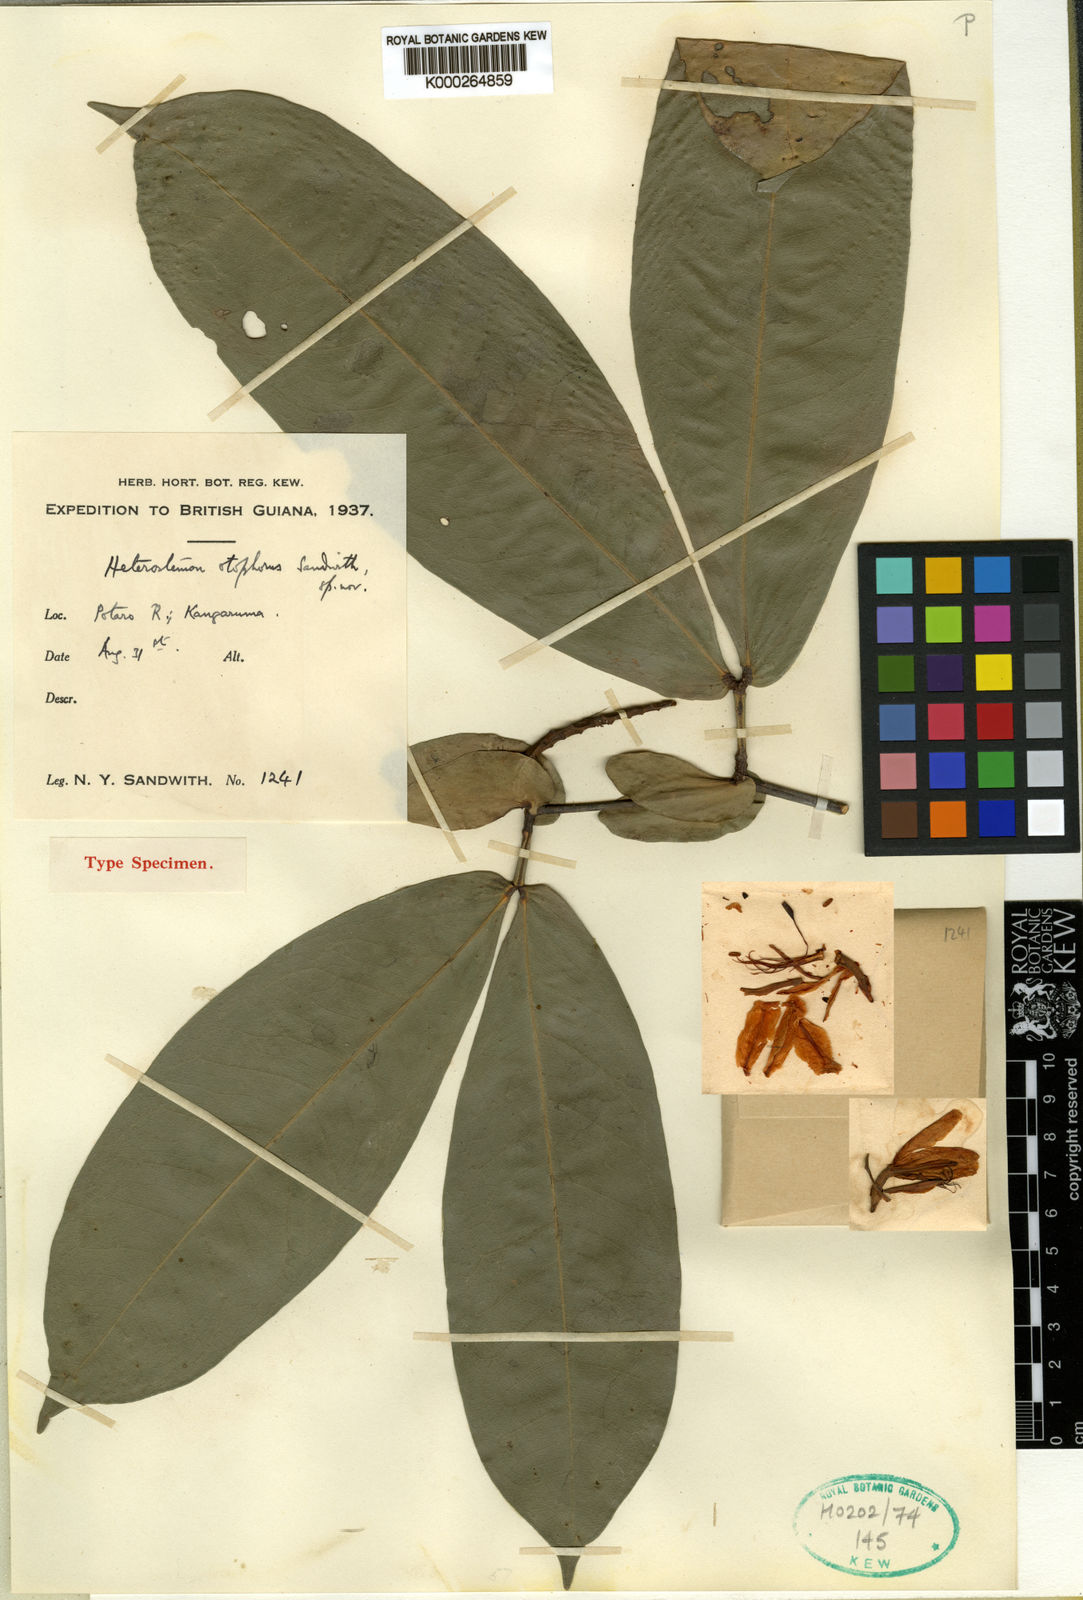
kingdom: Plantae
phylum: Tracheophyta
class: Magnoliopsida
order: Fabales
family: Fabaceae
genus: Heterostemon
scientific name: Heterostemon otophorus
